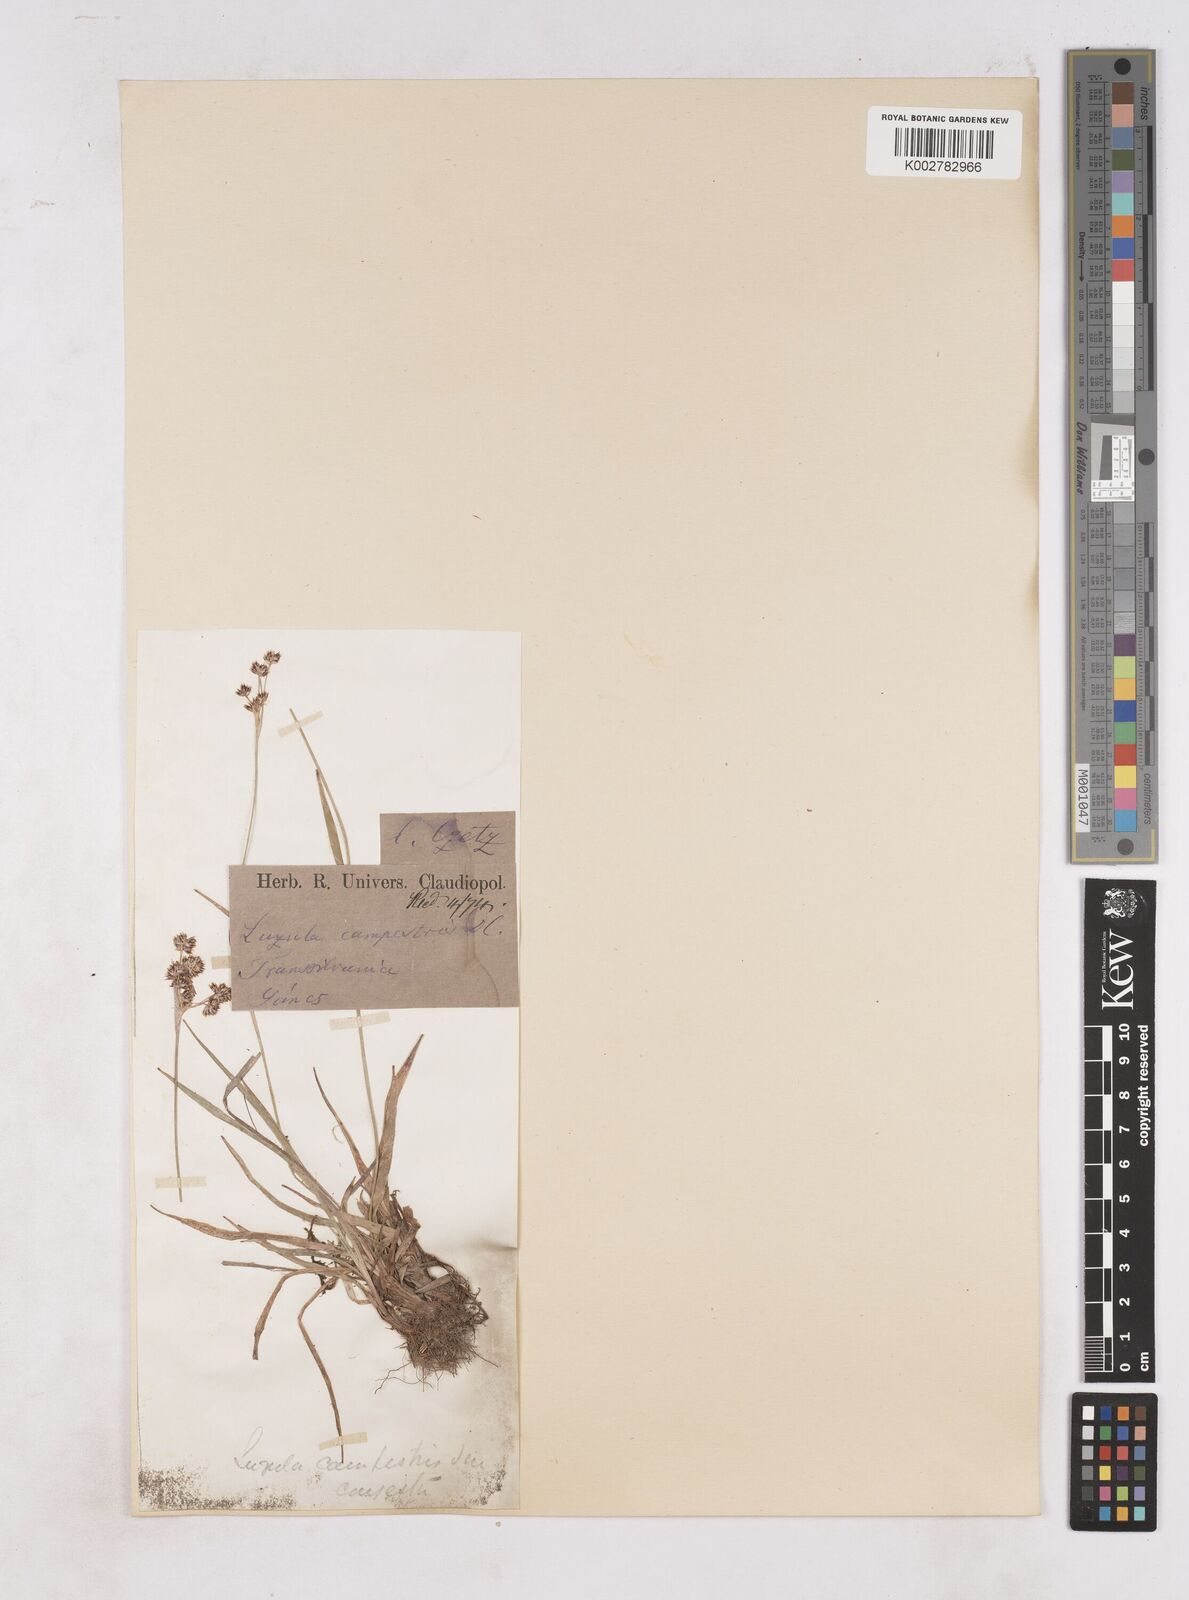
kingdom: Plantae
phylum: Tracheophyta
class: Liliopsida
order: Poales
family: Juncaceae
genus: Luzula
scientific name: Luzula campestris
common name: Field wood-rush
